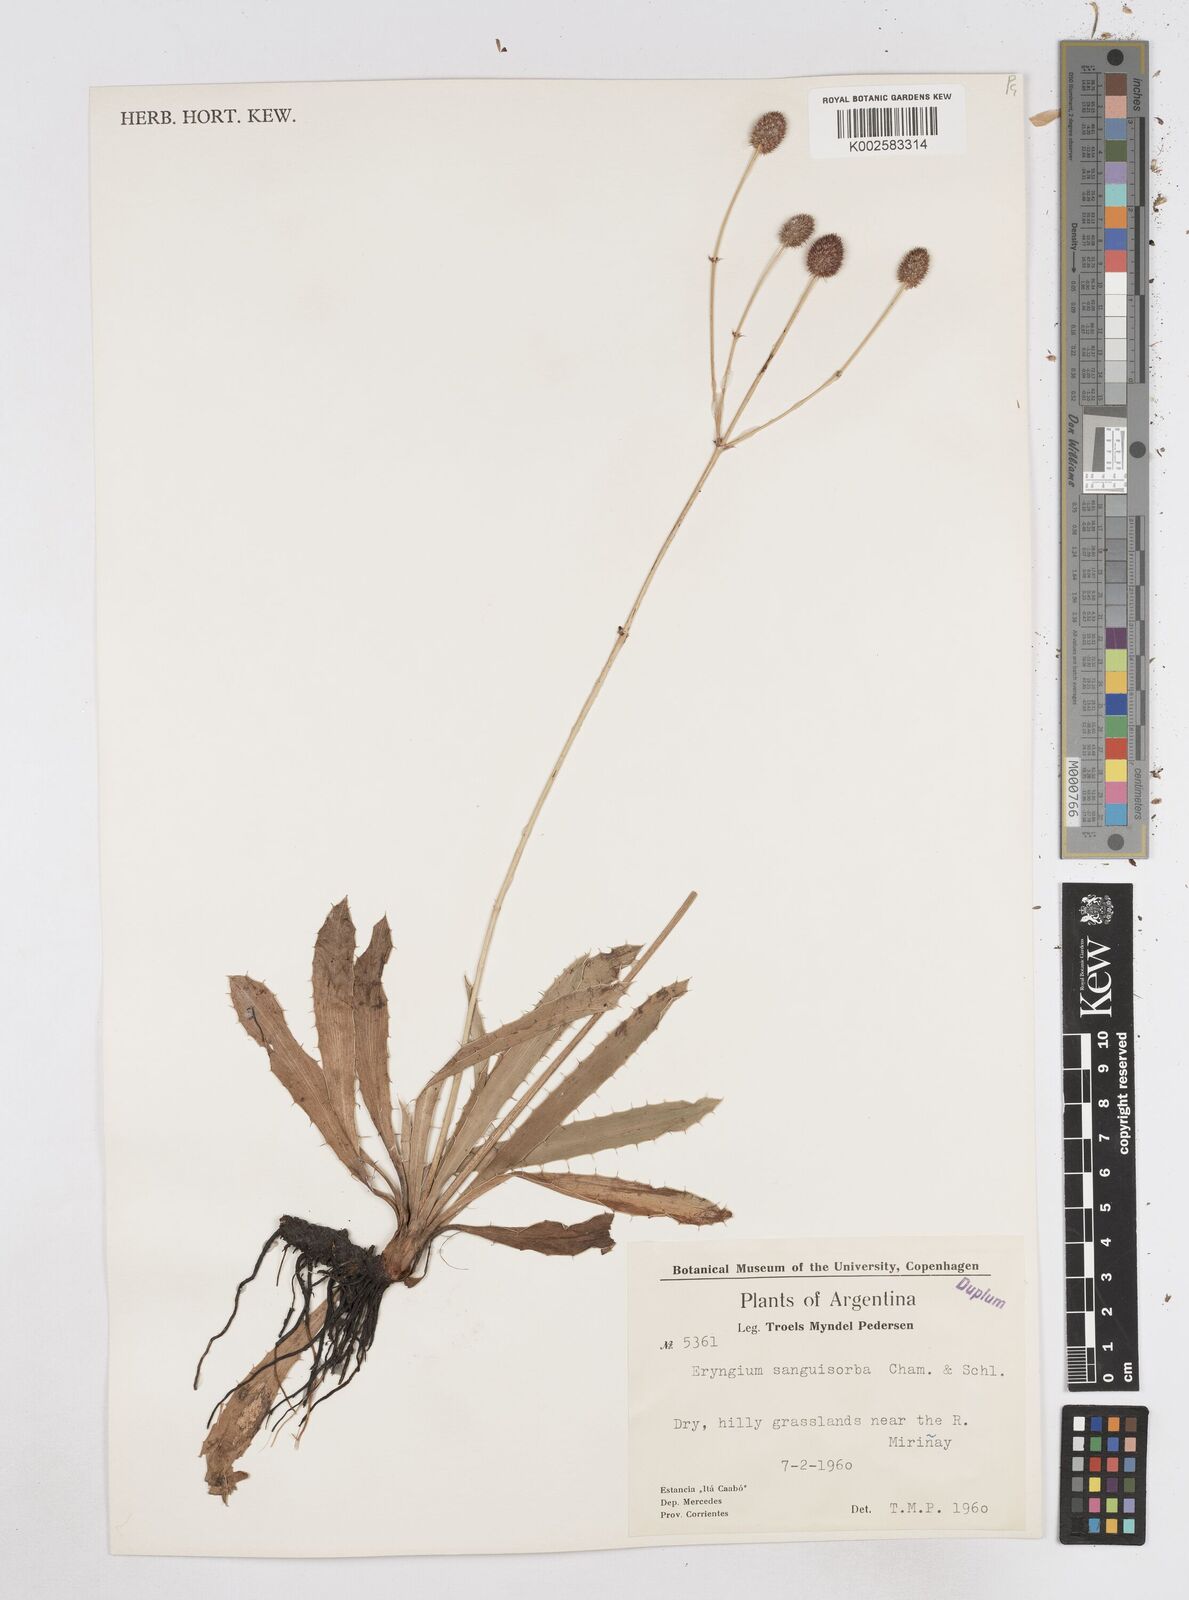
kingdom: Plantae
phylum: Tracheophyta
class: Magnoliopsida
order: Apiales
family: Apiaceae
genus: Eryngium
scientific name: Eryngium sanguisorba
